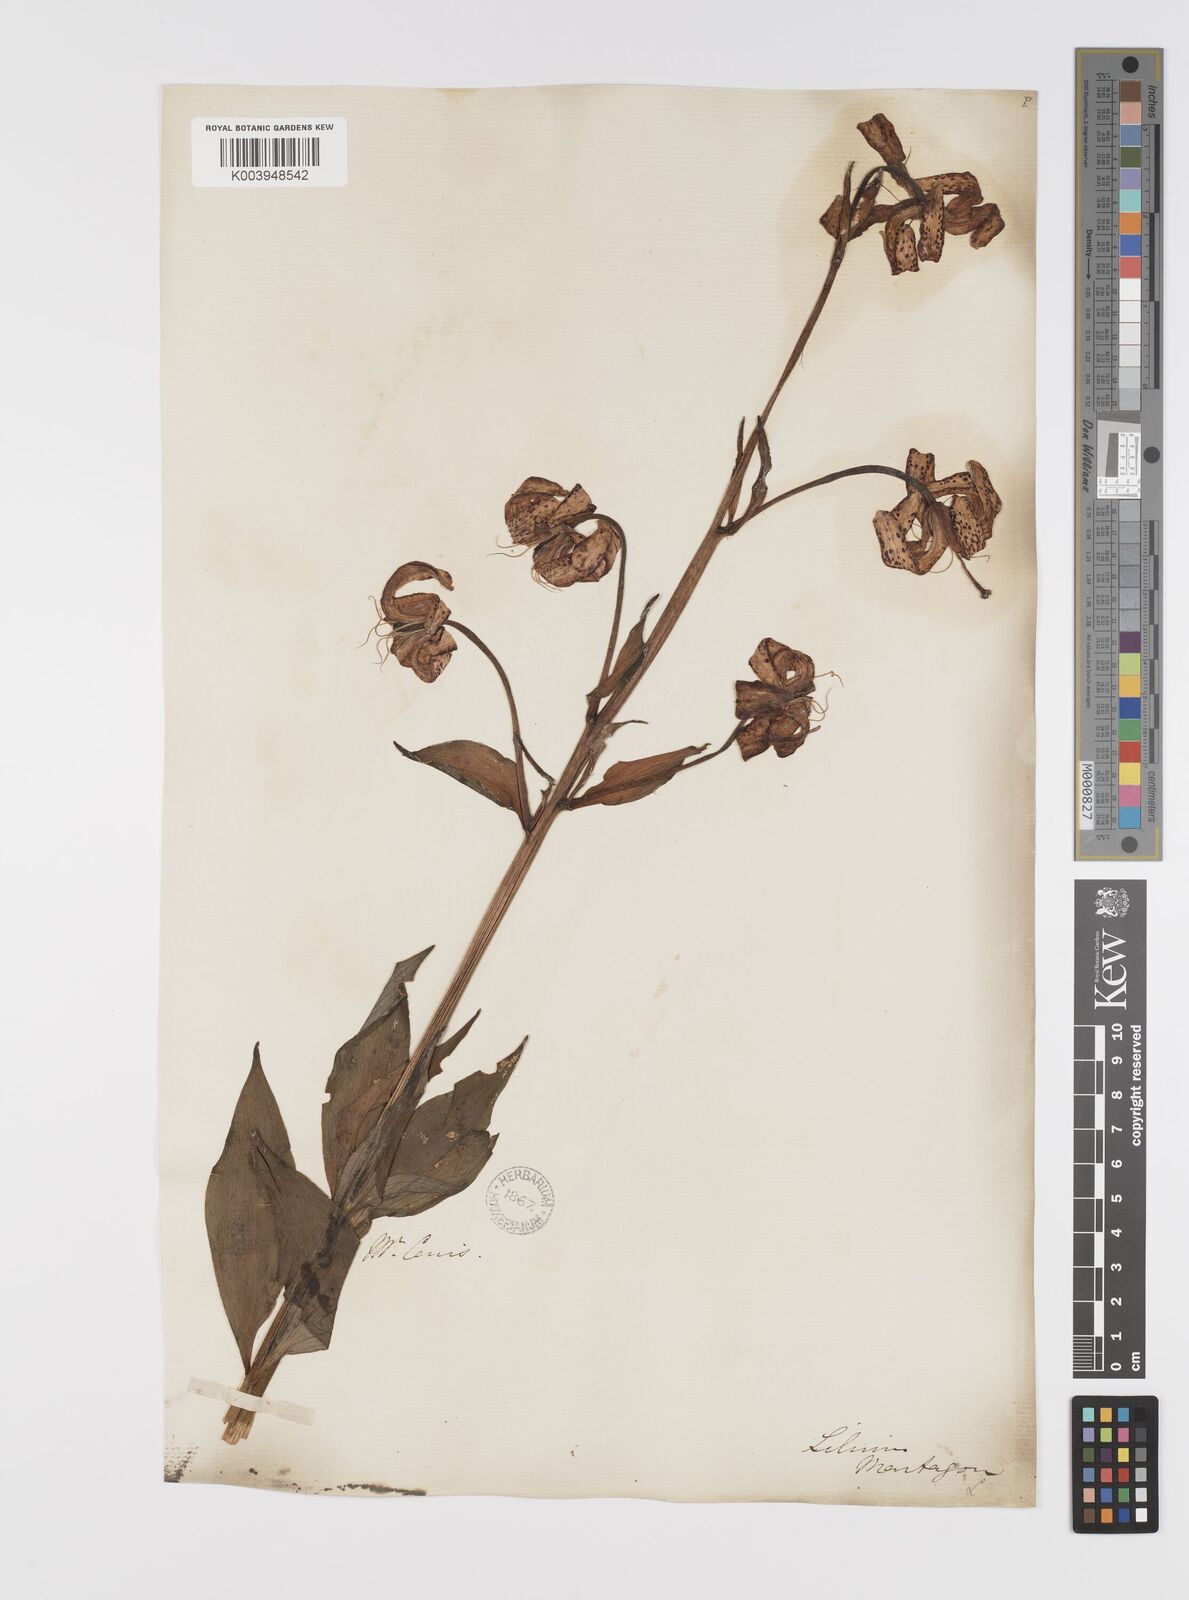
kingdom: Plantae
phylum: Tracheophyta
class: Liliopsida
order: Liliales
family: Liliaceae
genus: Lilium
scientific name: Lilium martagon
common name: Martagon lily
